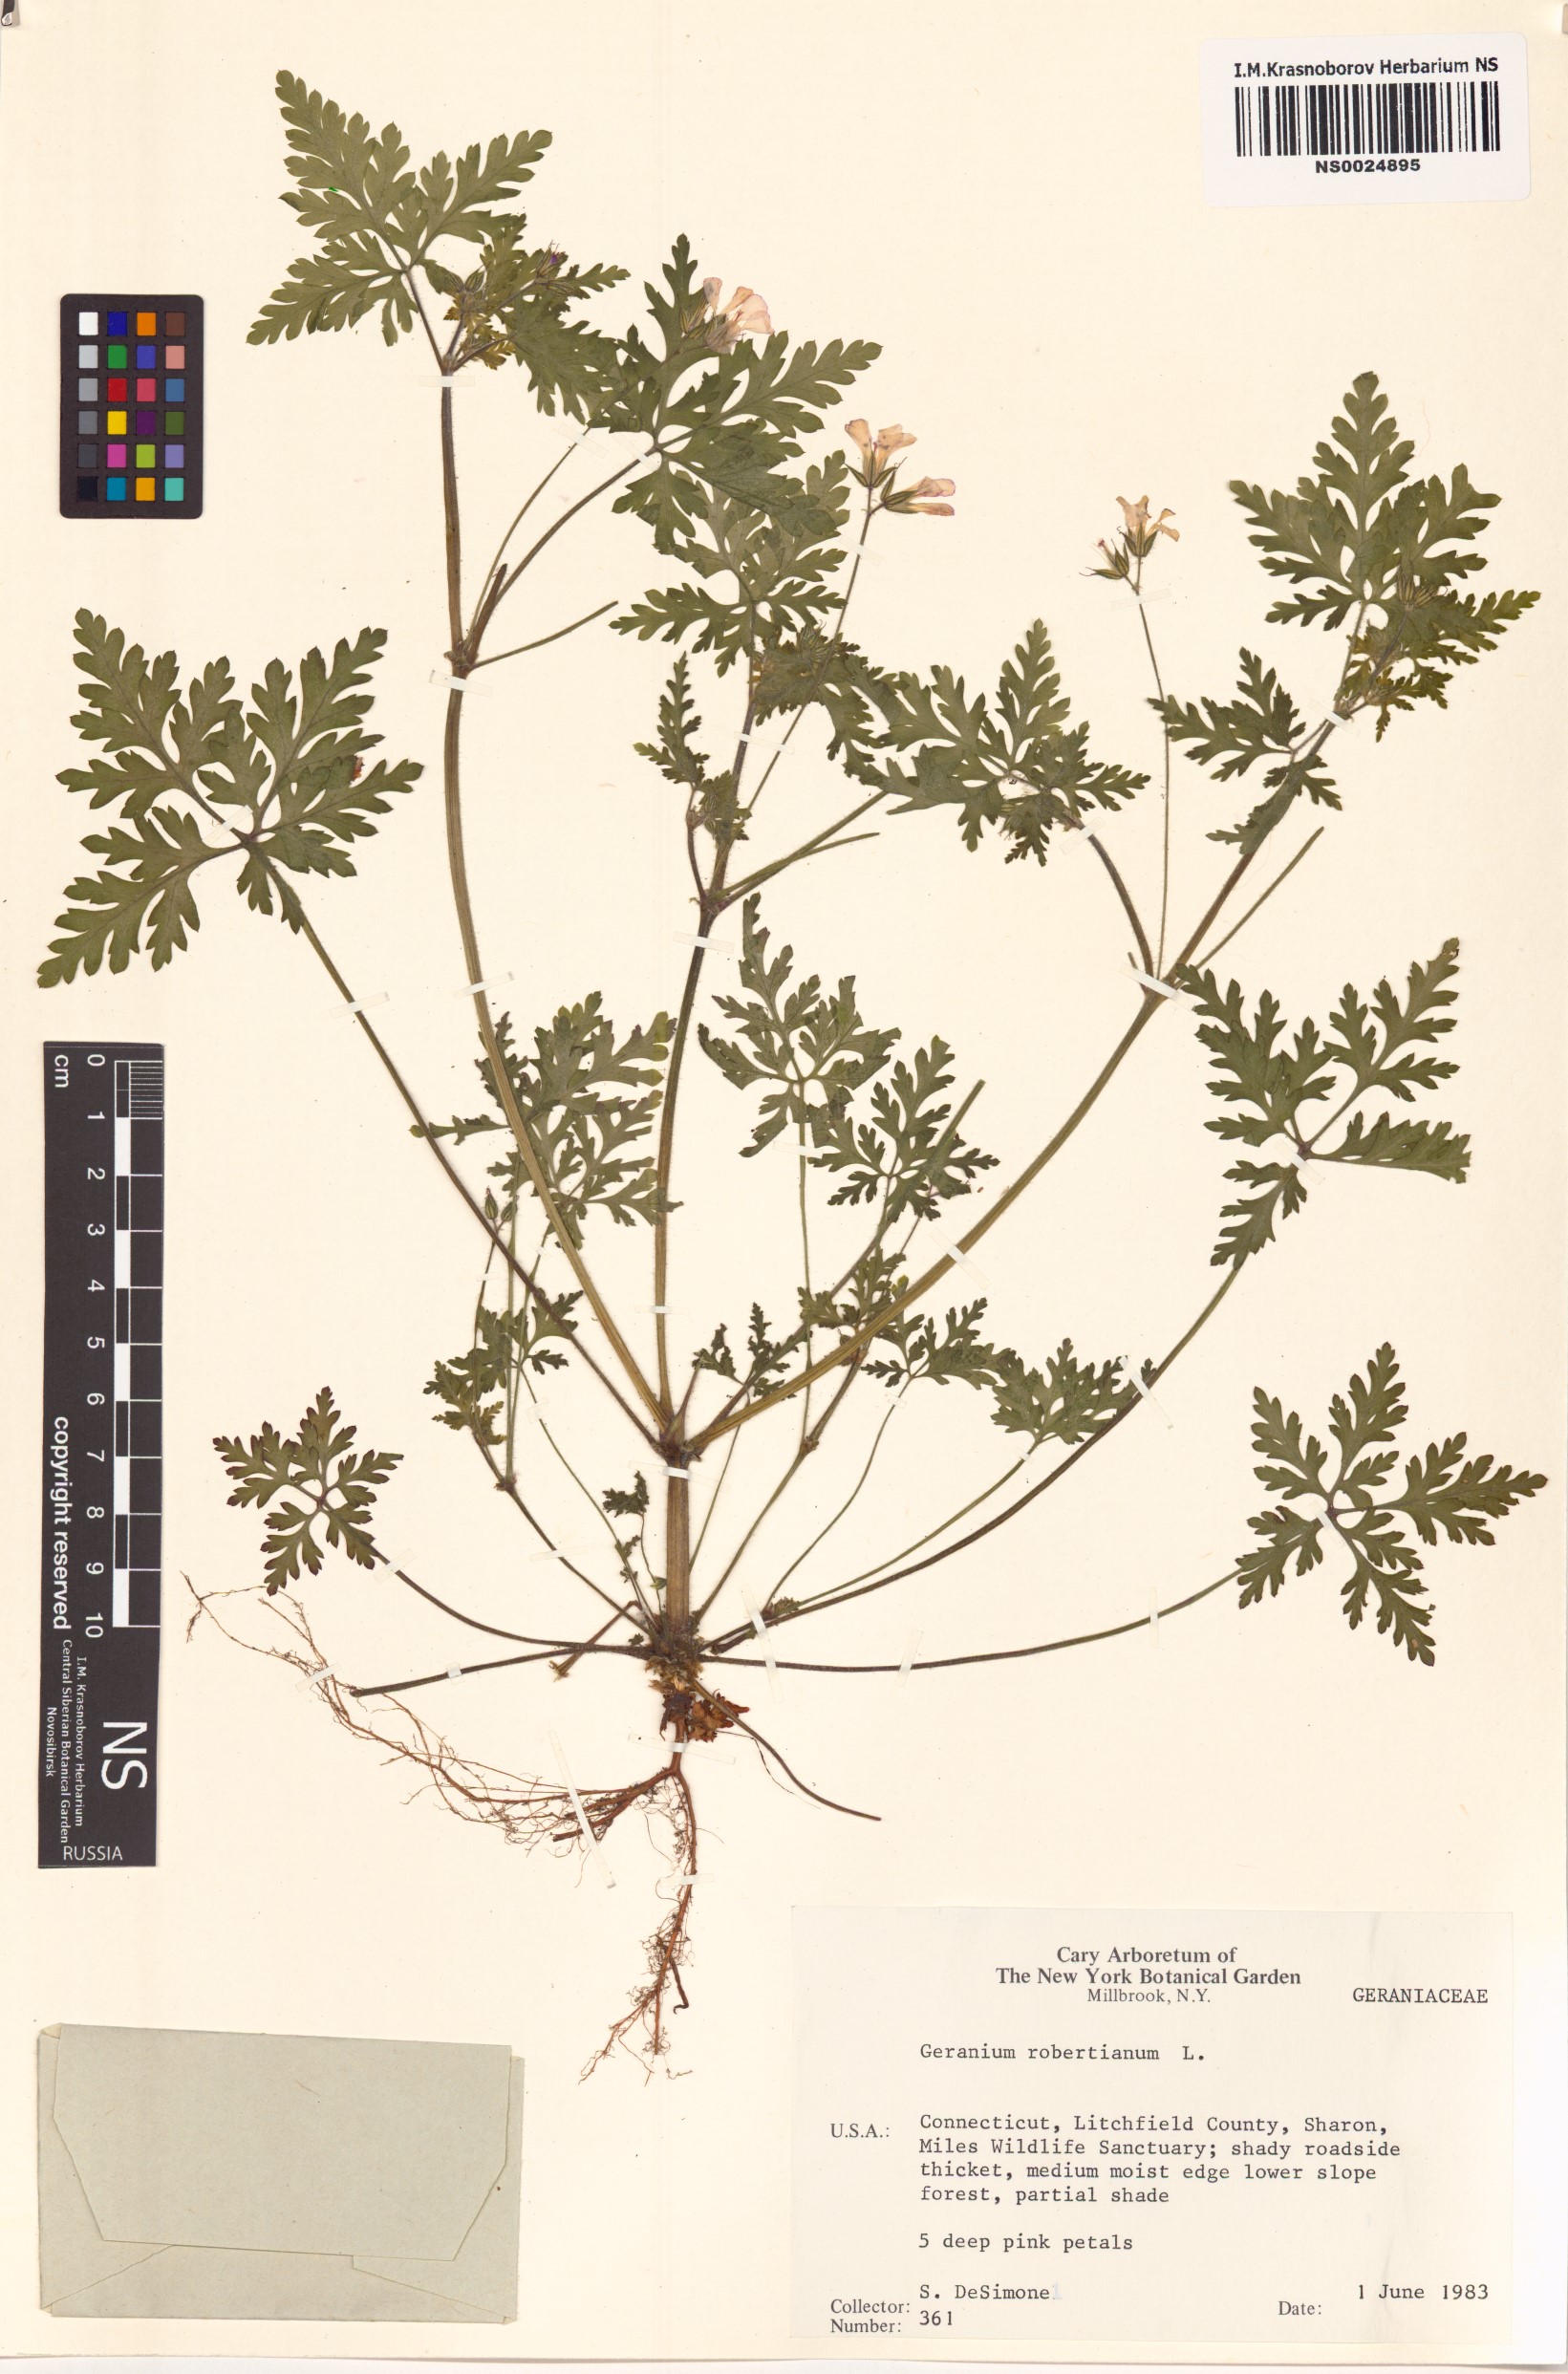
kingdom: Plantae
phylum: Tracheophyta
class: Magnoliopsida
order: Geraniales
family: Geraniaceae
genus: Geranium
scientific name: Geranium robertianum
